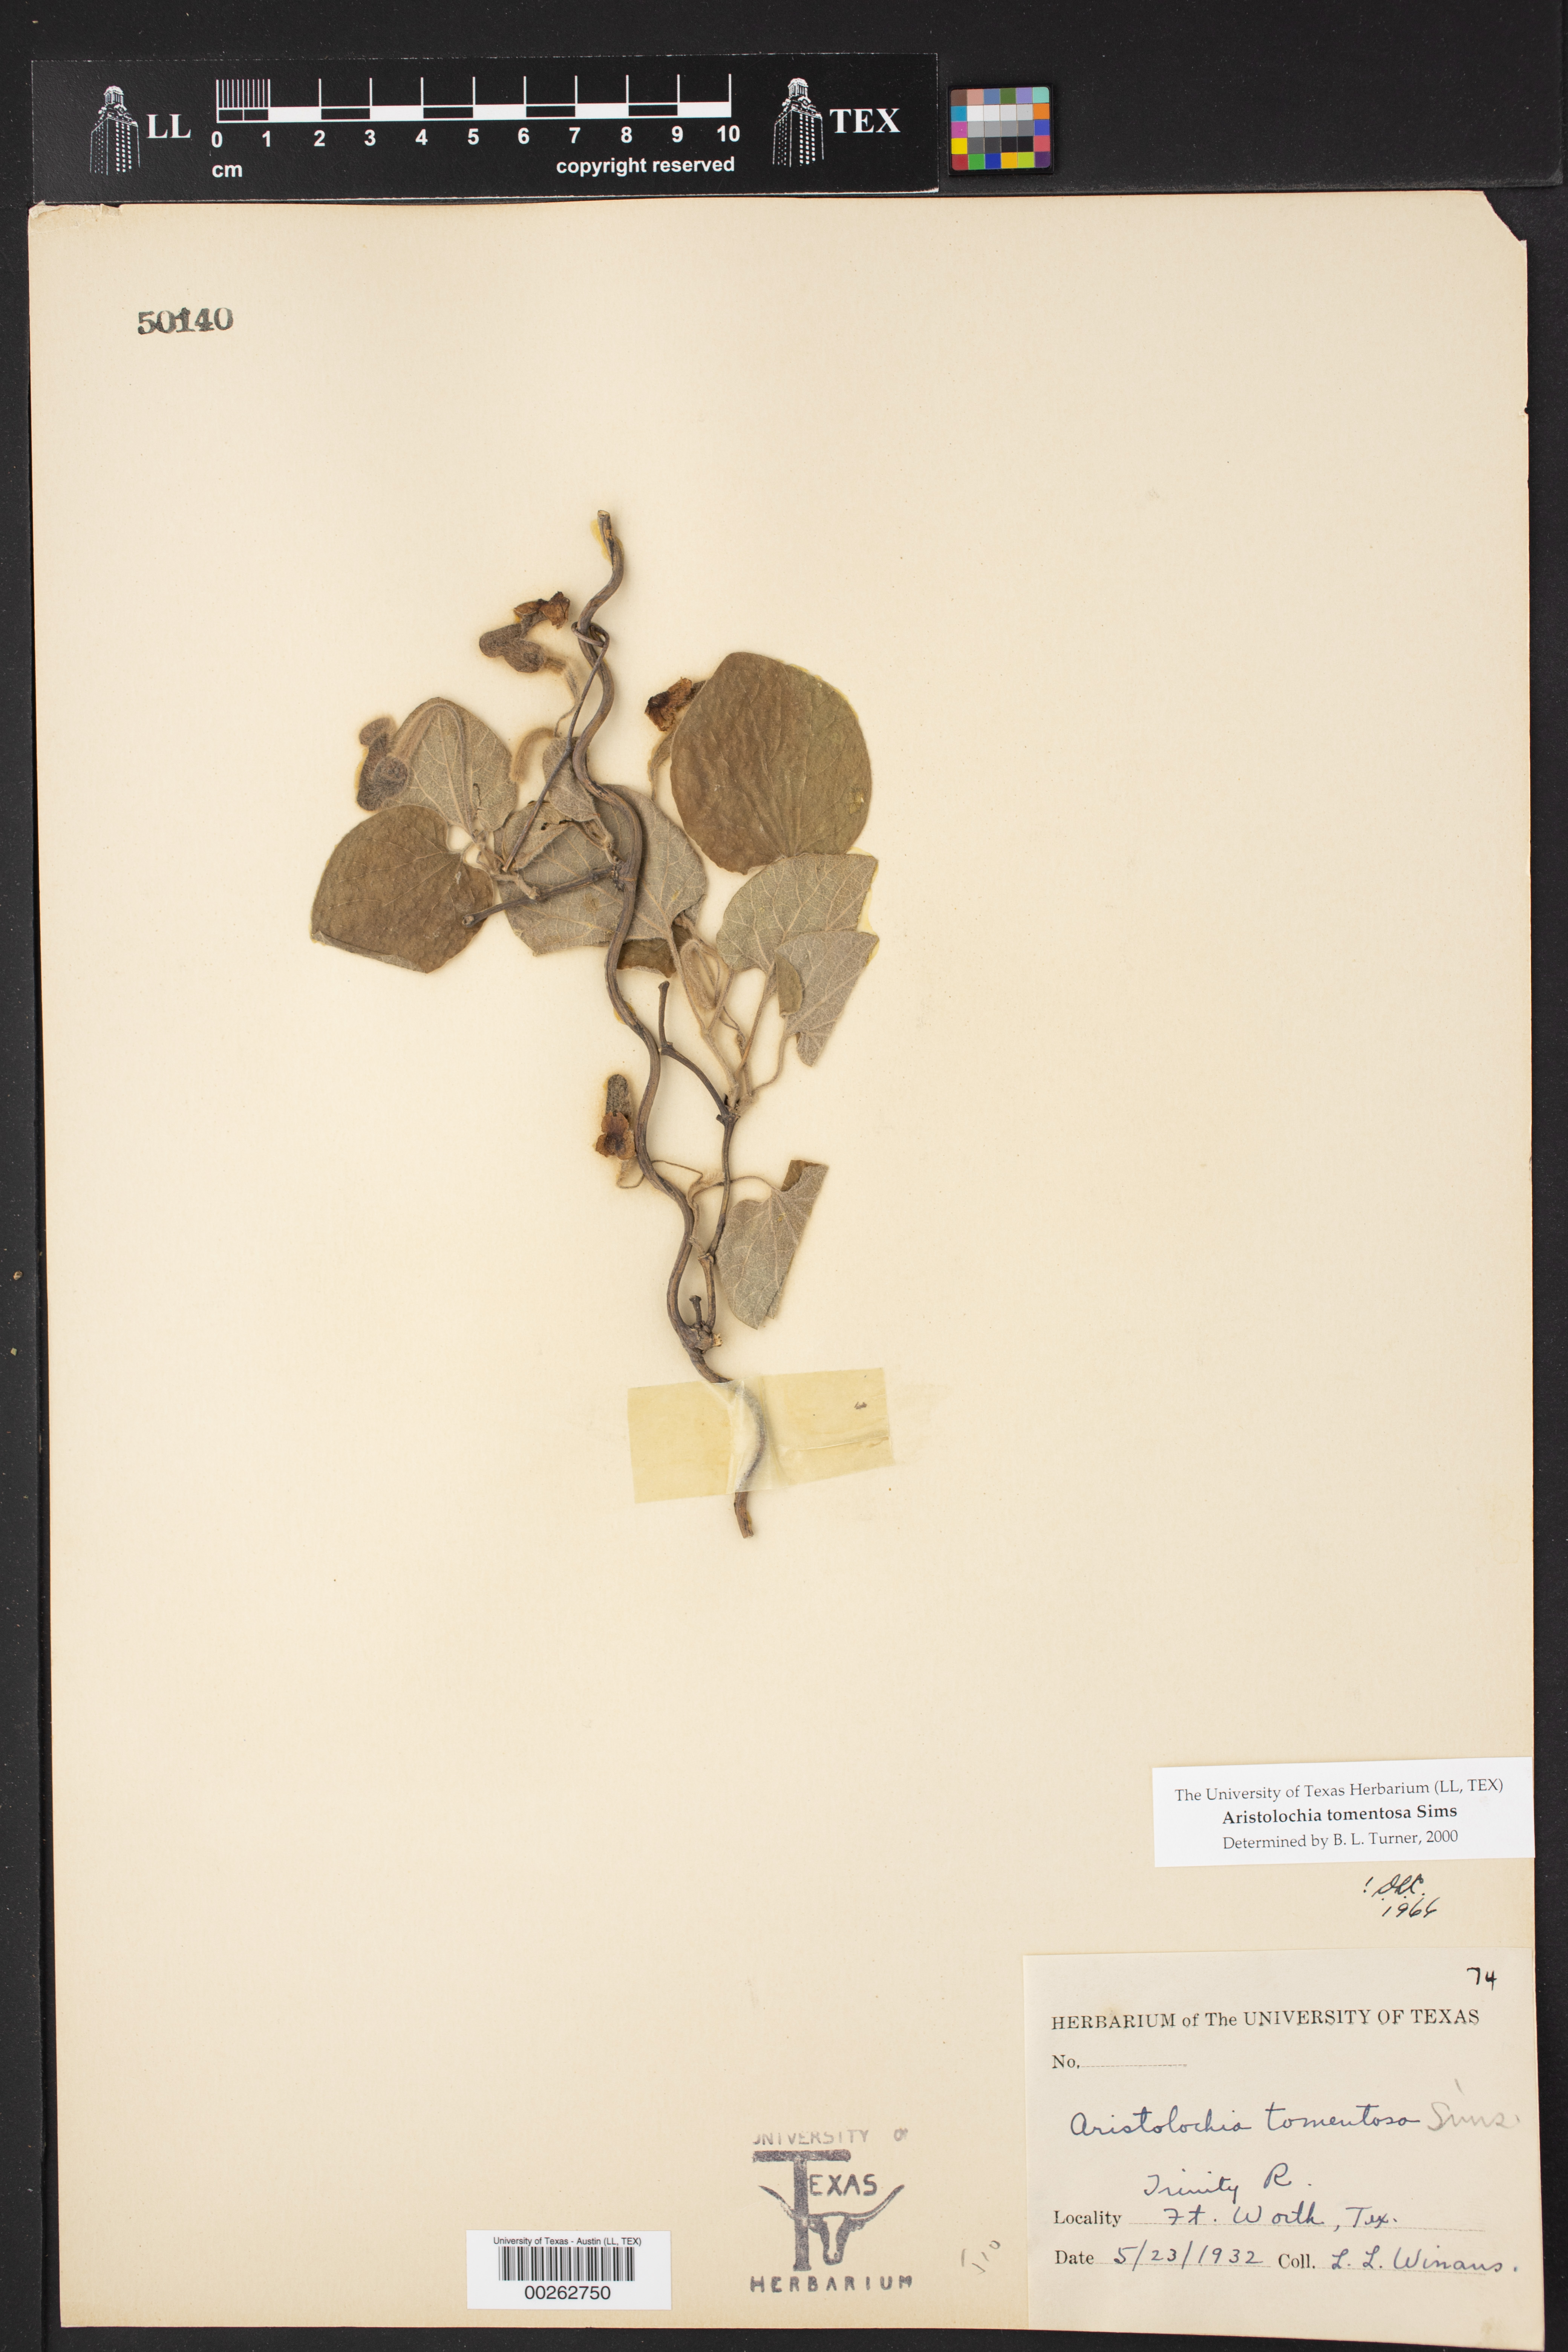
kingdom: Plantae
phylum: Tracheophyta
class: Magnoliopsida
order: Piperales
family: Aristolochiaceae
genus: Isotrema
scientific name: Isotrema tomentosum
